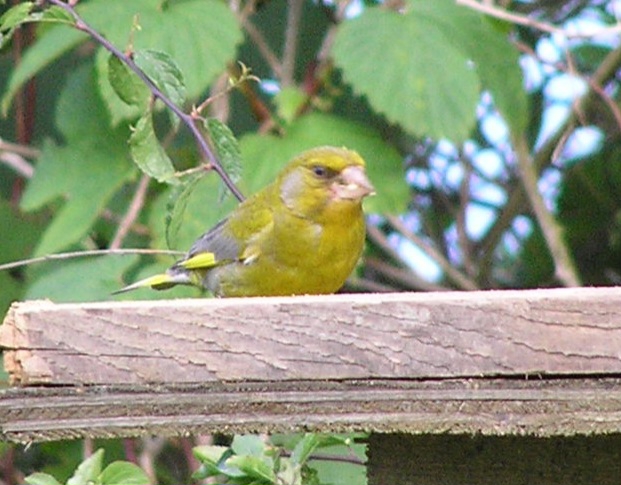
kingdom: Plantae
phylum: Tracheophyta
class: Liliopsida
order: Poales
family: Poaceae
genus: Chloris
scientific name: Chloris chloris
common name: Grønirisk
